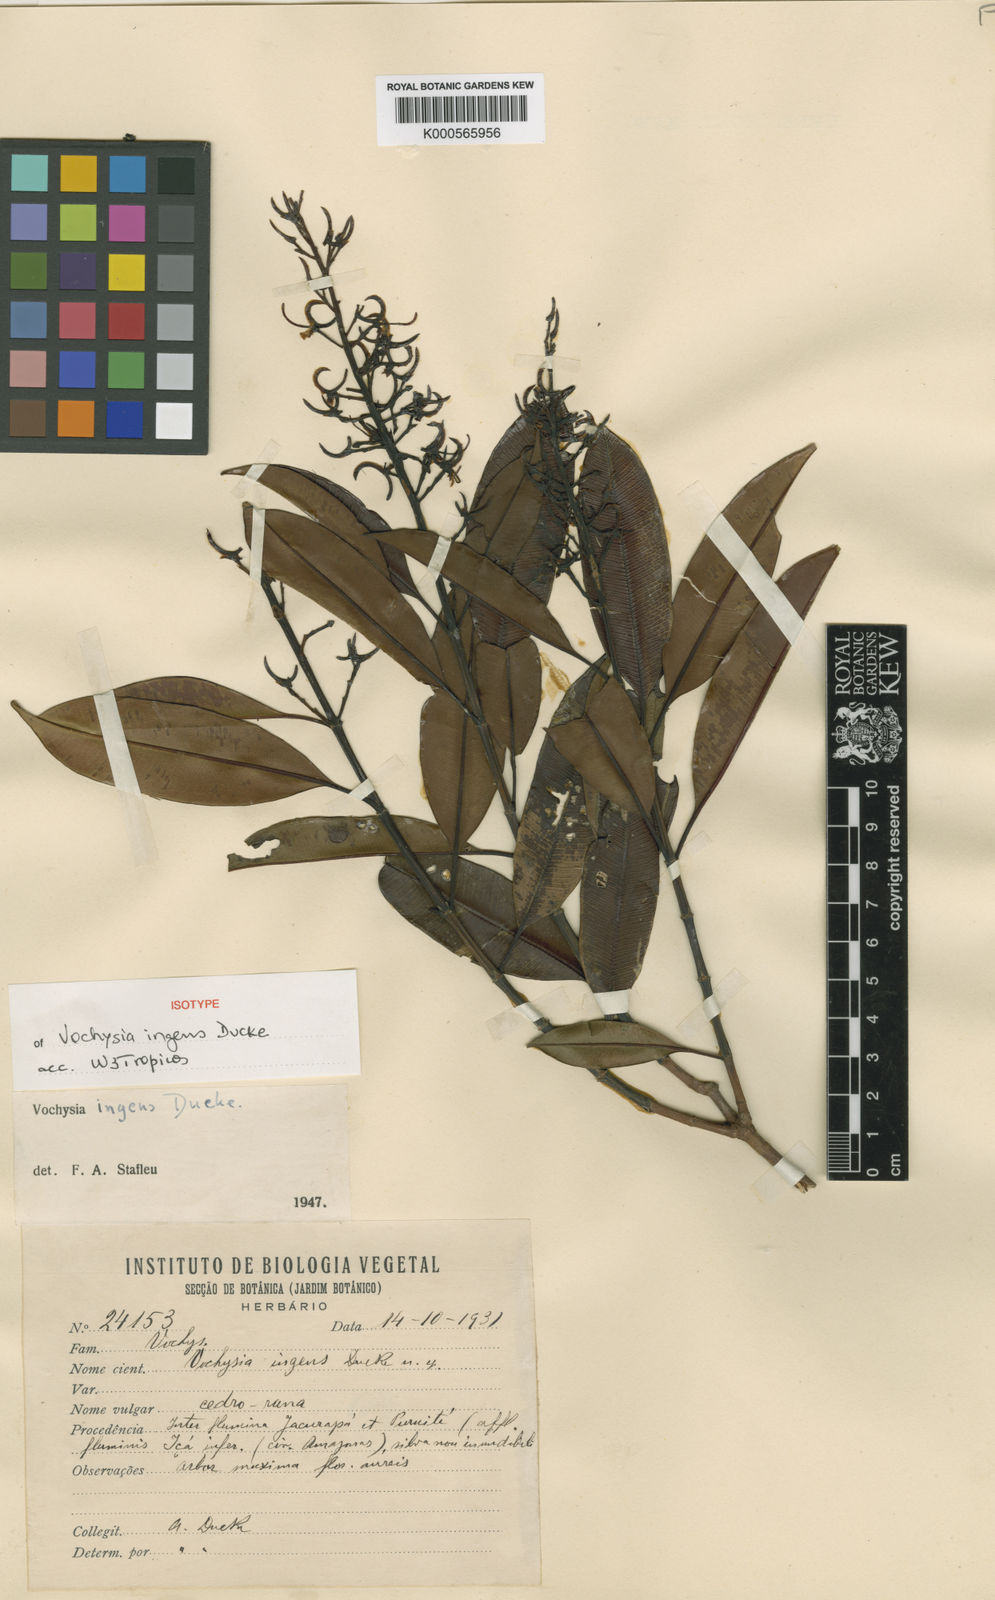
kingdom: Plantae
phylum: Tracheophyta
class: Magnoliopsida
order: Myrtales
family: Vochysiaceae
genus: Vochysia
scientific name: Vochysia ingens
